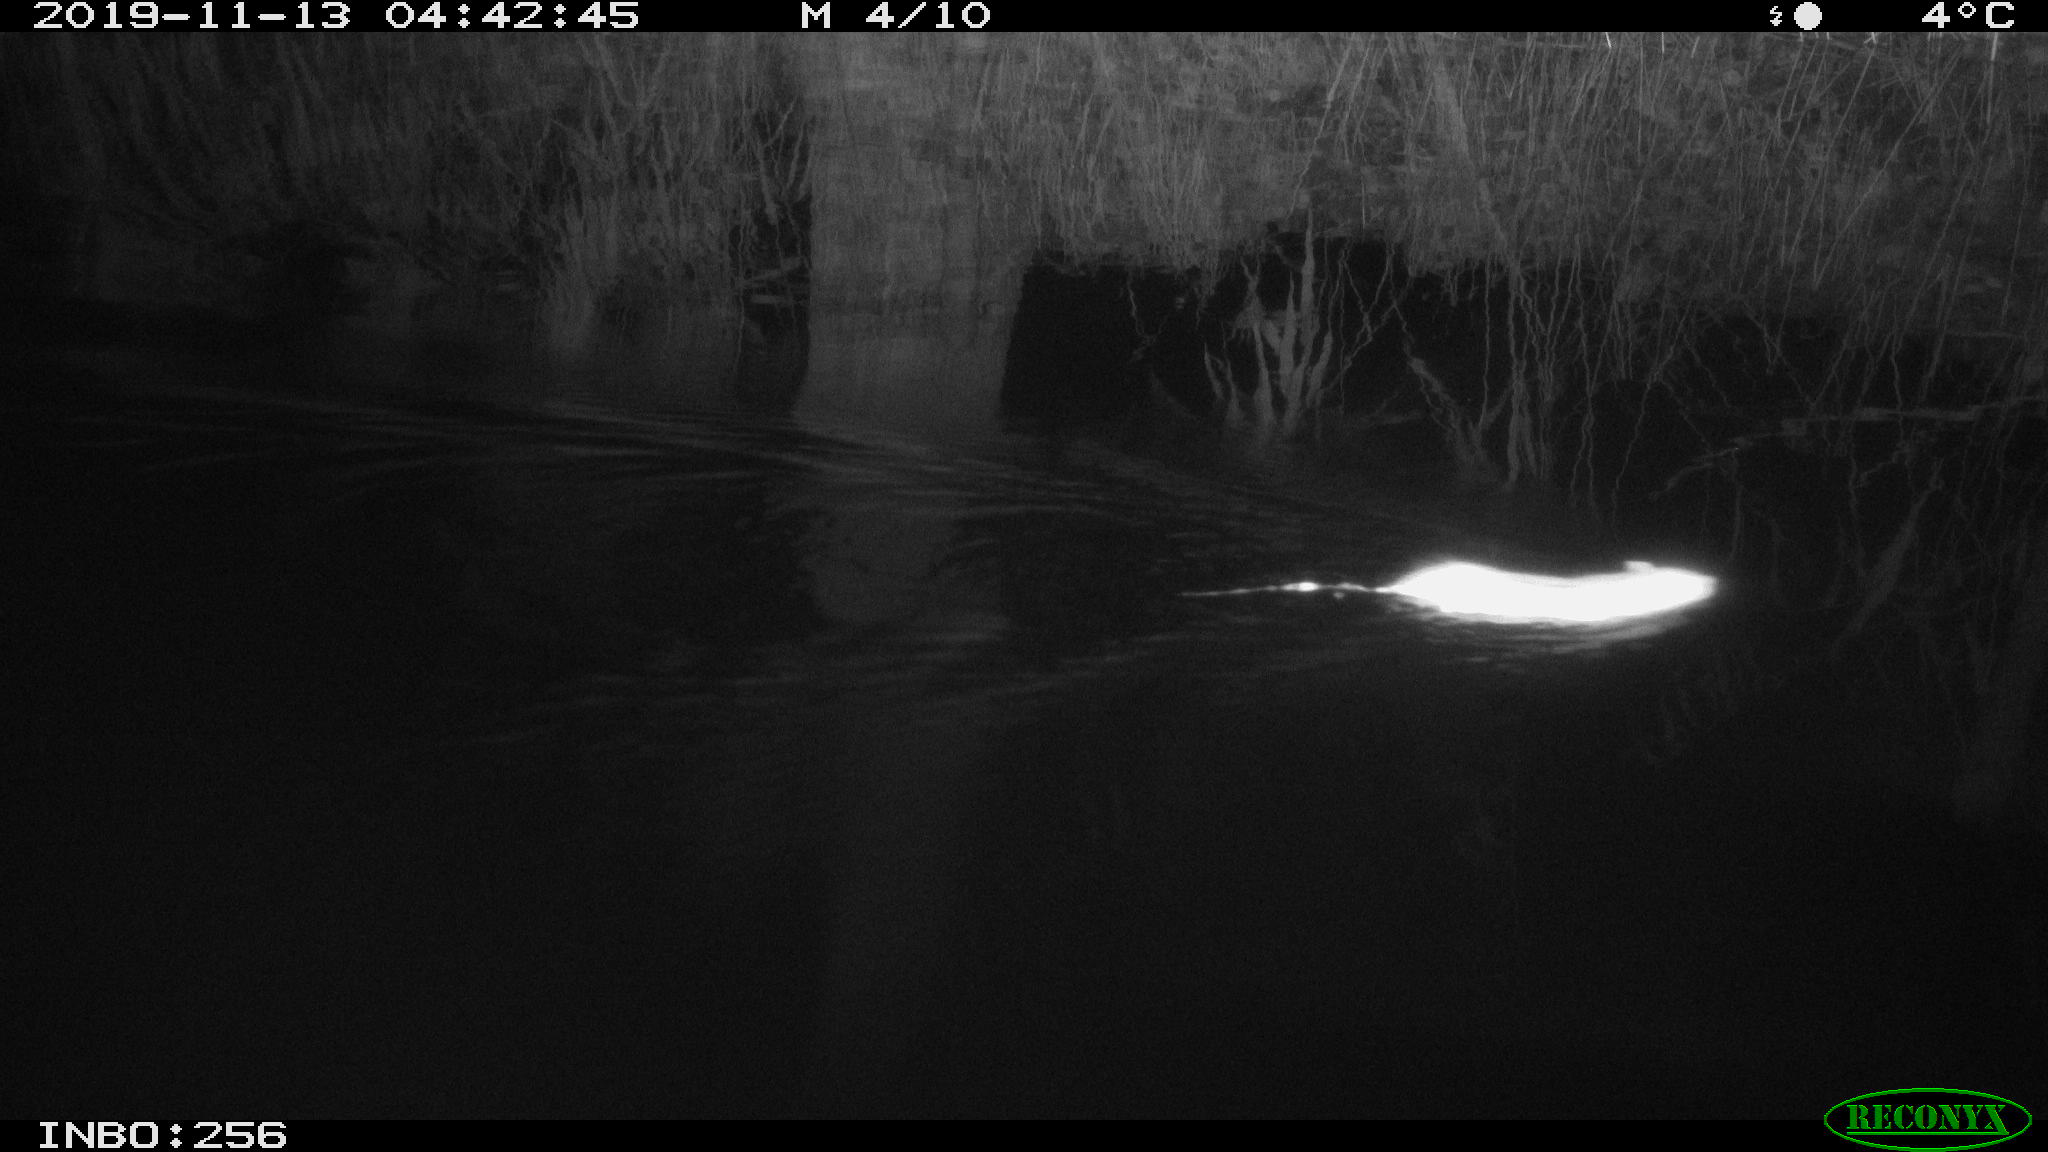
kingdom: Animalia
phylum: Chordata
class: Mammalia
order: Rodentia
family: Muridae
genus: Rattus
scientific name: Rattus norvegicus
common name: Brown rat
